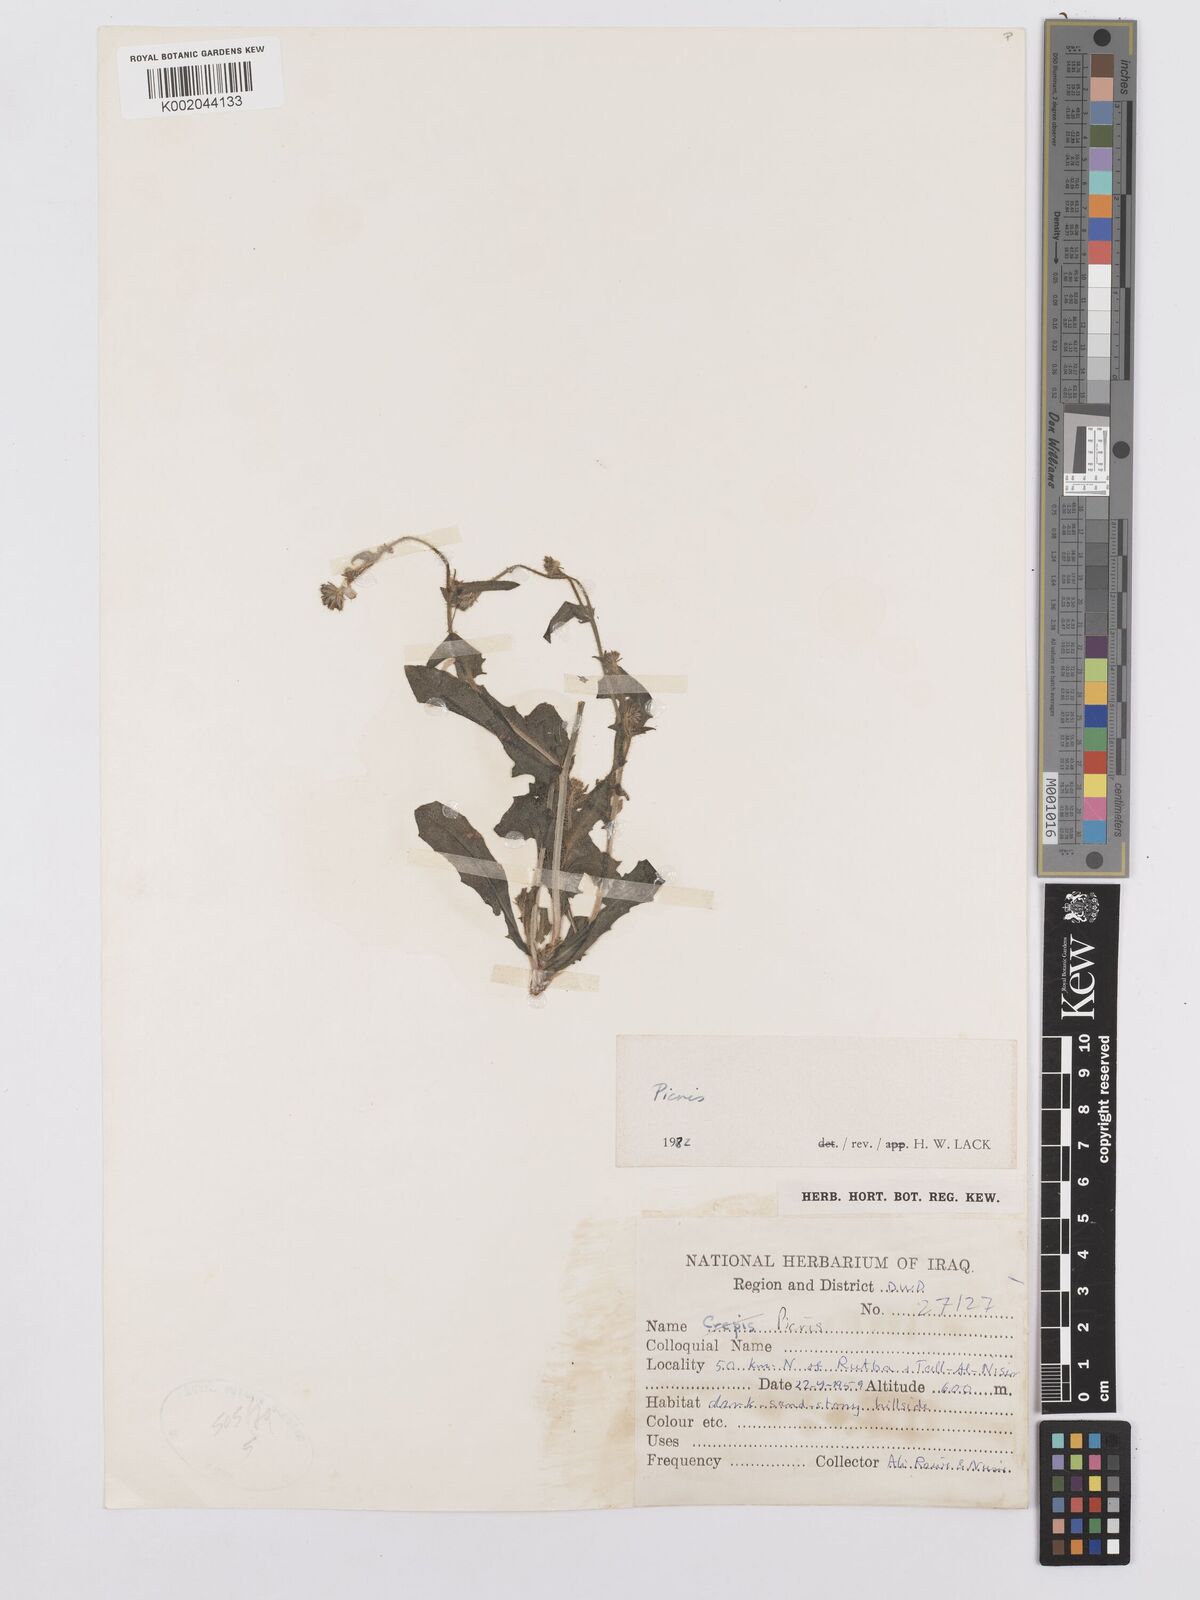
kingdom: Plantae
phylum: Tracheophyta
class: Magnoliopsida
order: Asterales
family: Asteraceae
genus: Picris
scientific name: Picris
